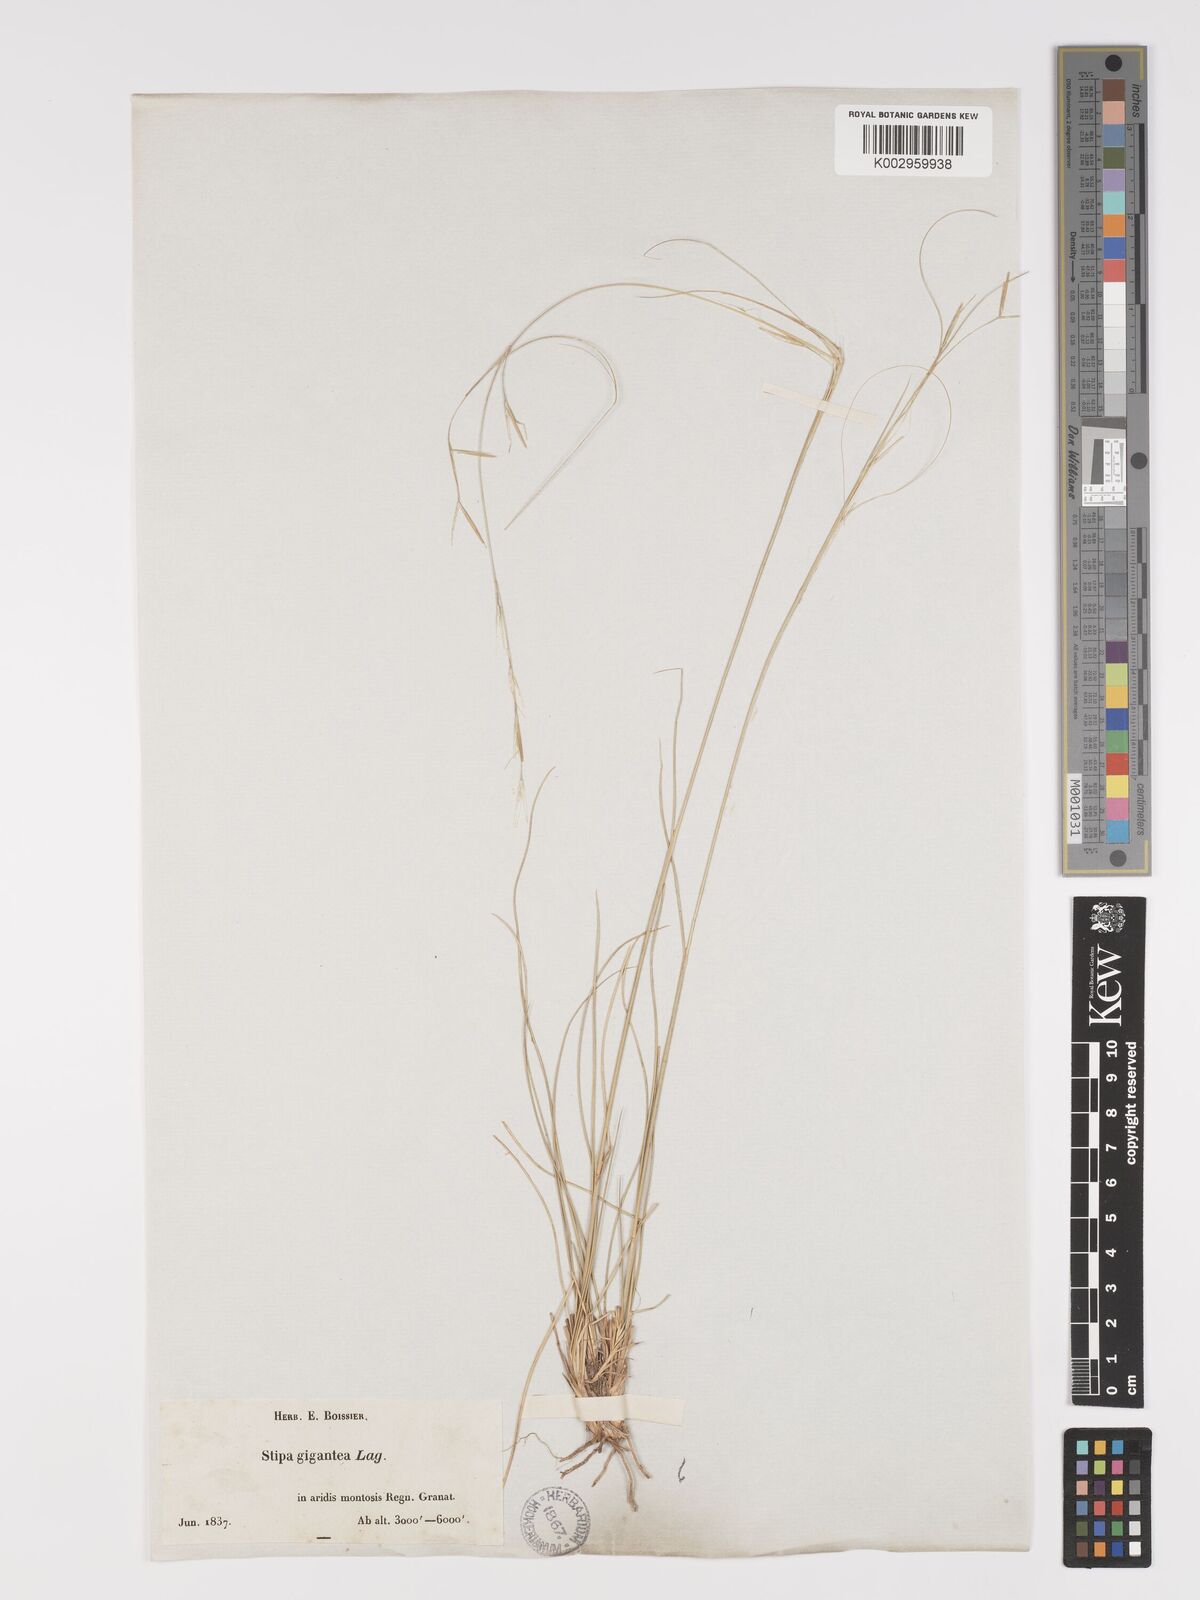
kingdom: Plantae
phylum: Tracheophyta
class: Liliopsida
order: Poales
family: Poaceae
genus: Stipa
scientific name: Stipa
